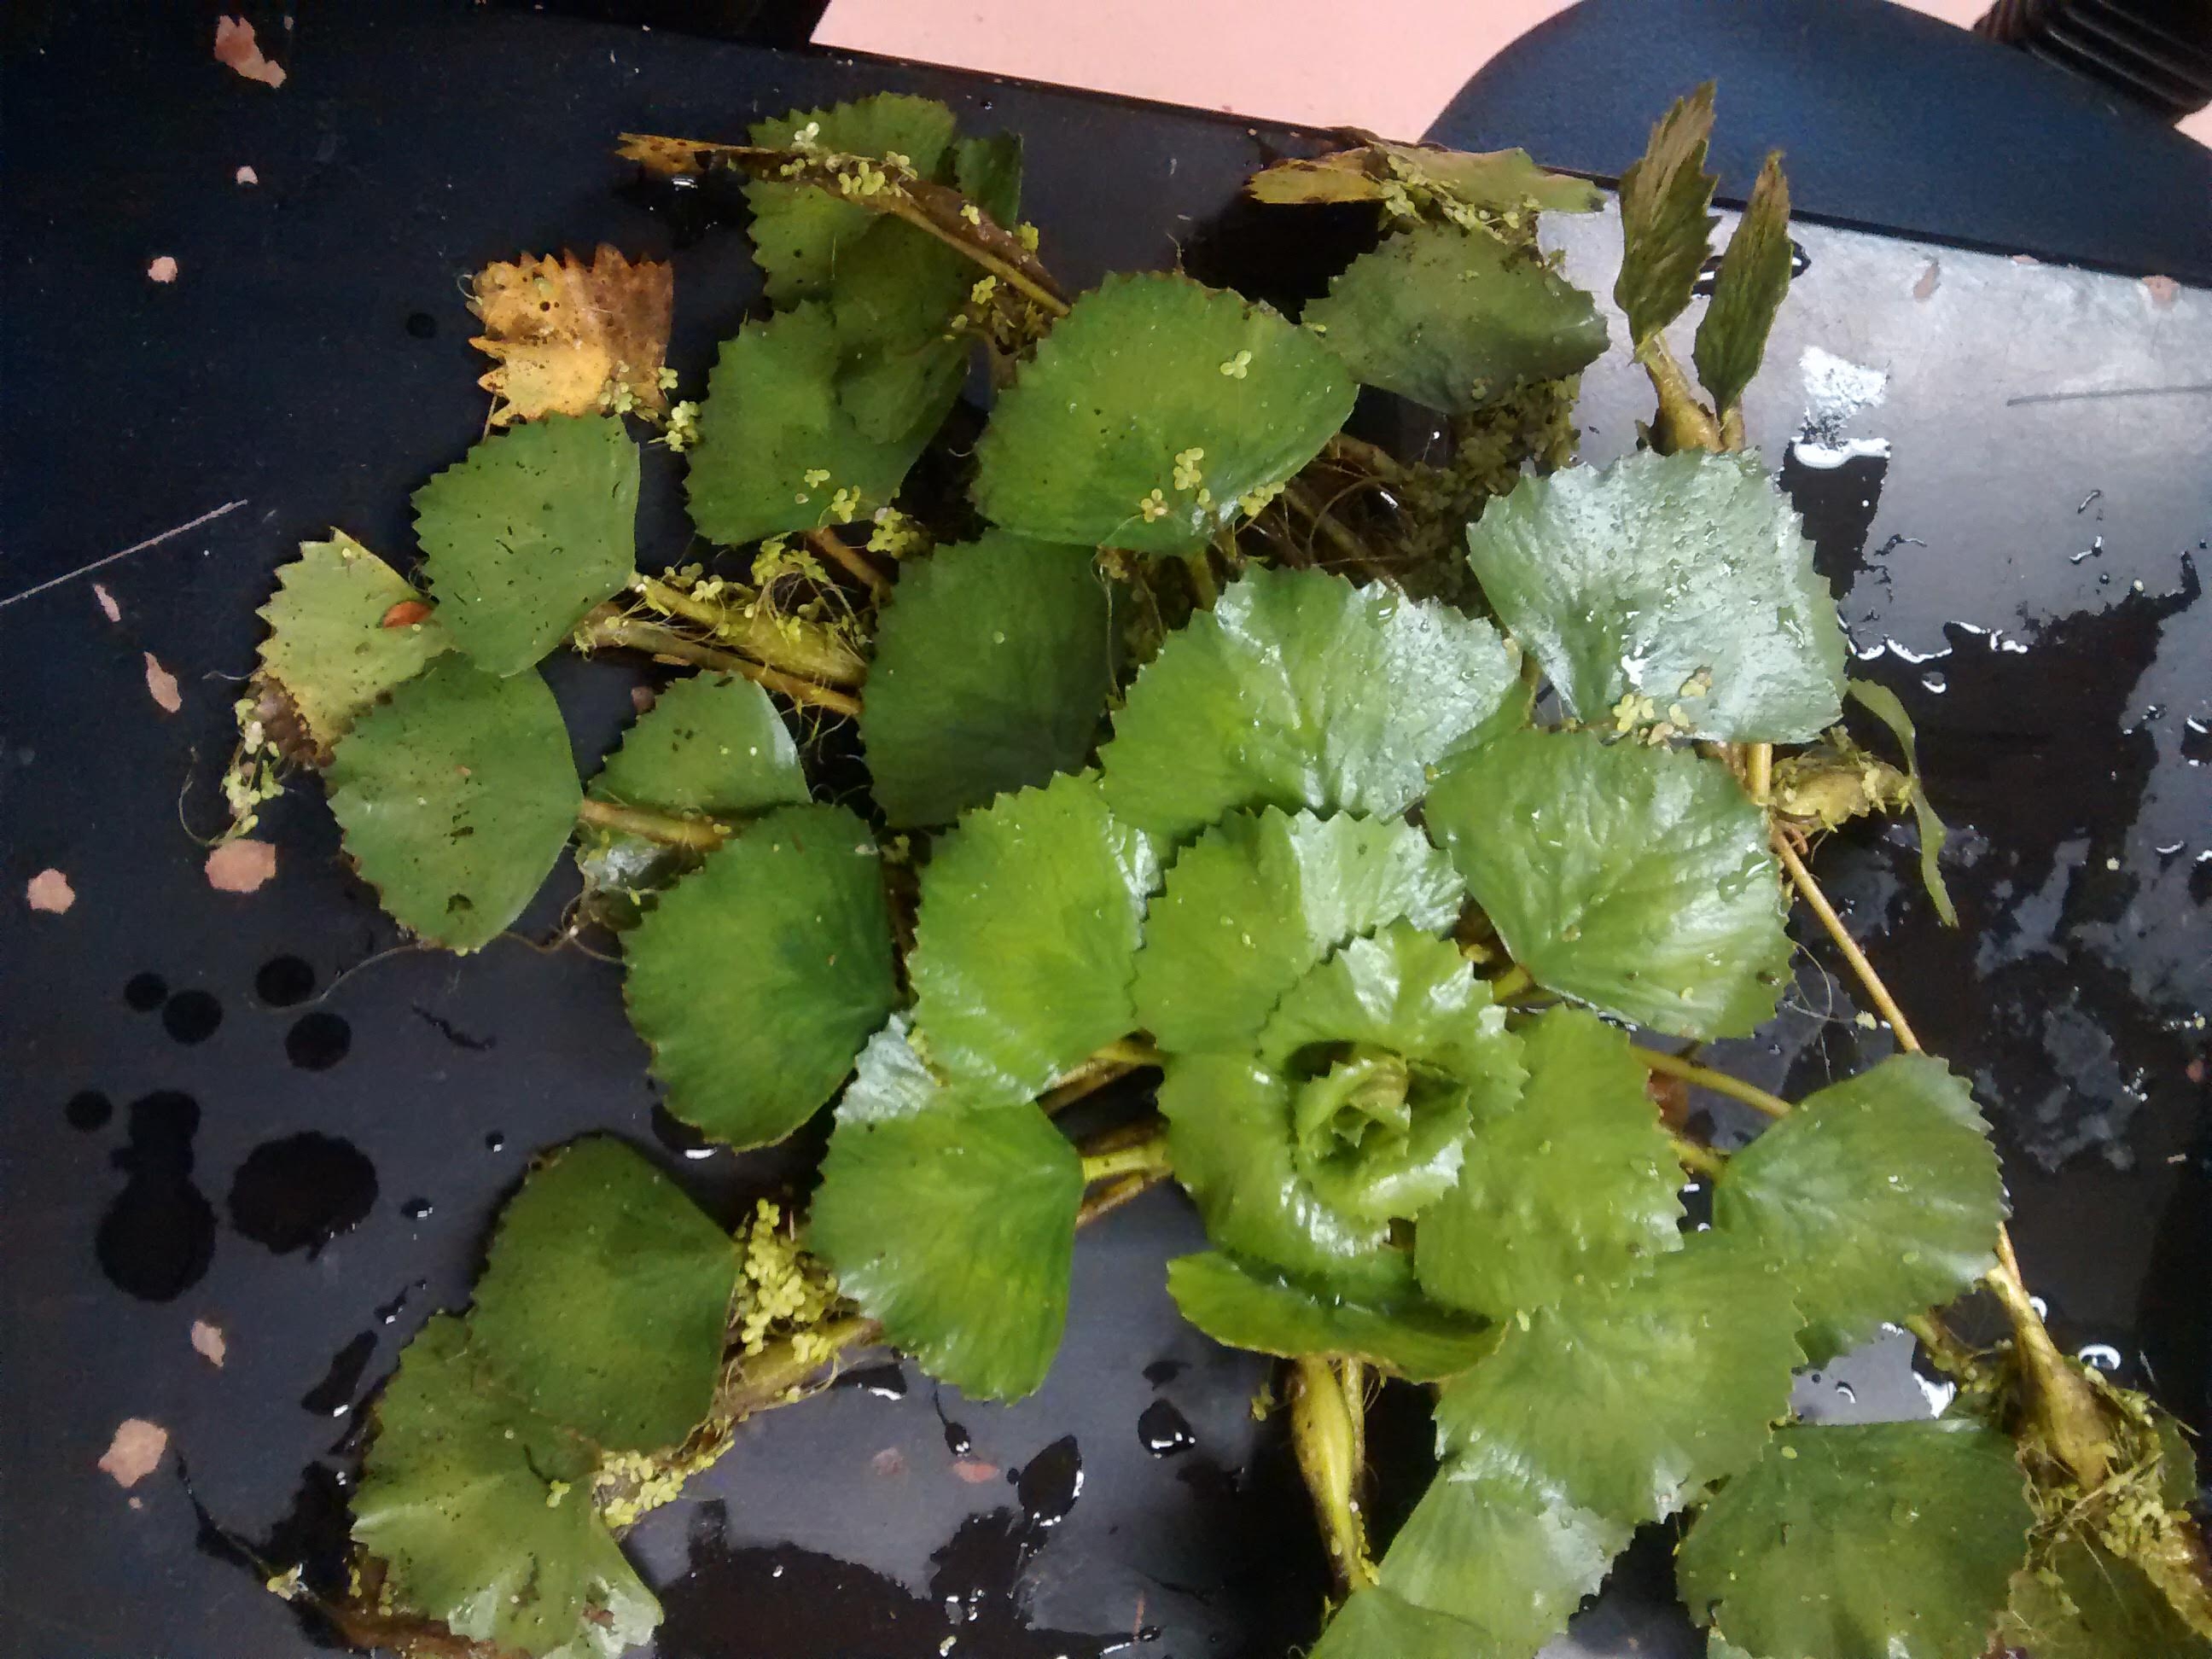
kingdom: Plantae
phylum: Tracheophyta
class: Magnoliopsida
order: Myrtales
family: Lythraceae
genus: Trapa
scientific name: Trapa natans
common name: Water caltrop
